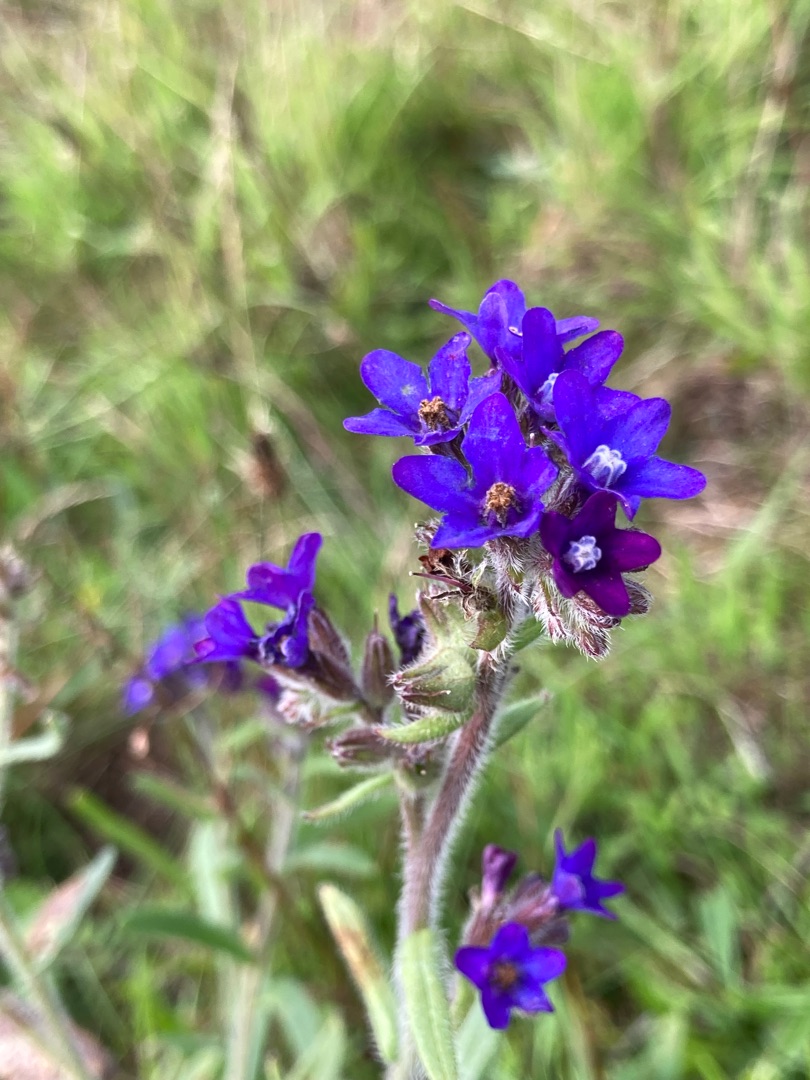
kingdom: Plantae
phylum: Tracheophyta
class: Magnoliopsida
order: Boraginales
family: Boraginaceae
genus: Anchusa
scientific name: Anchusa officinalis
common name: Læge-oksetunge
